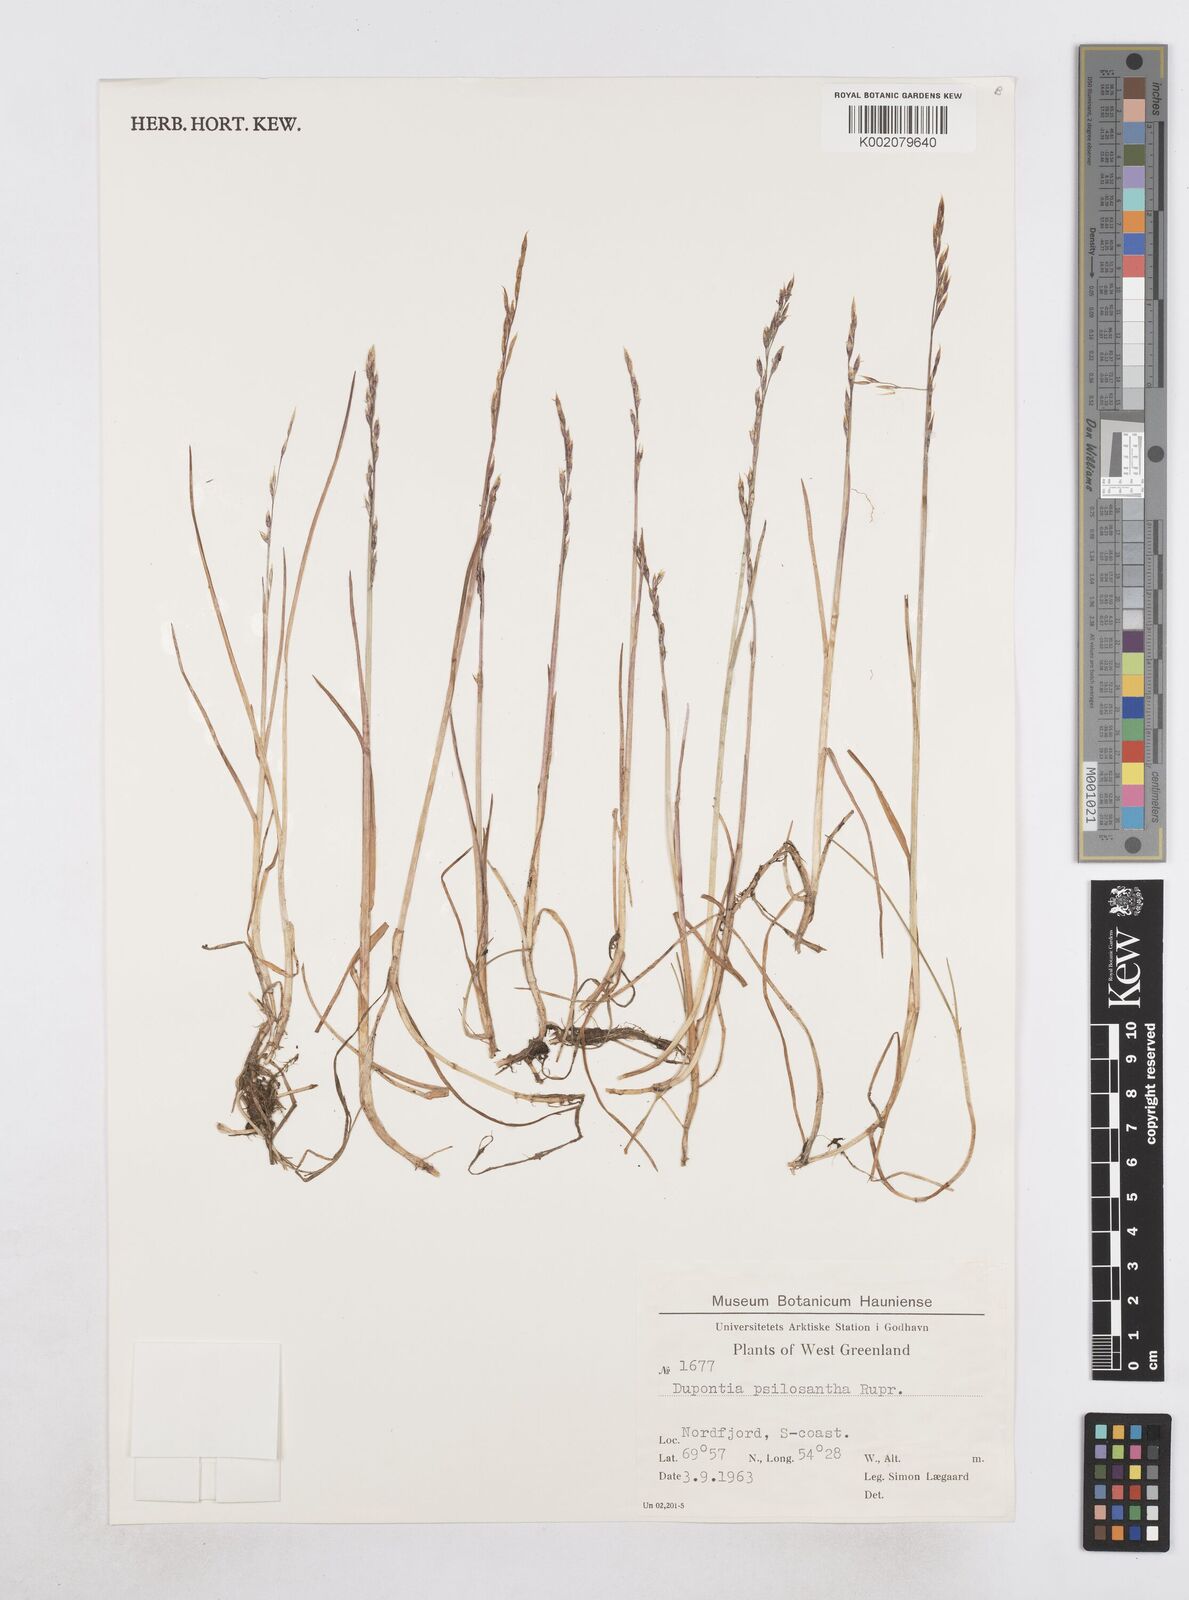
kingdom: Plantae
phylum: Tracheophyta
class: Liliopsida
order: Poales
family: Poaceae
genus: Dupontia
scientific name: Dupontia fisheri
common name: Tundra grass
